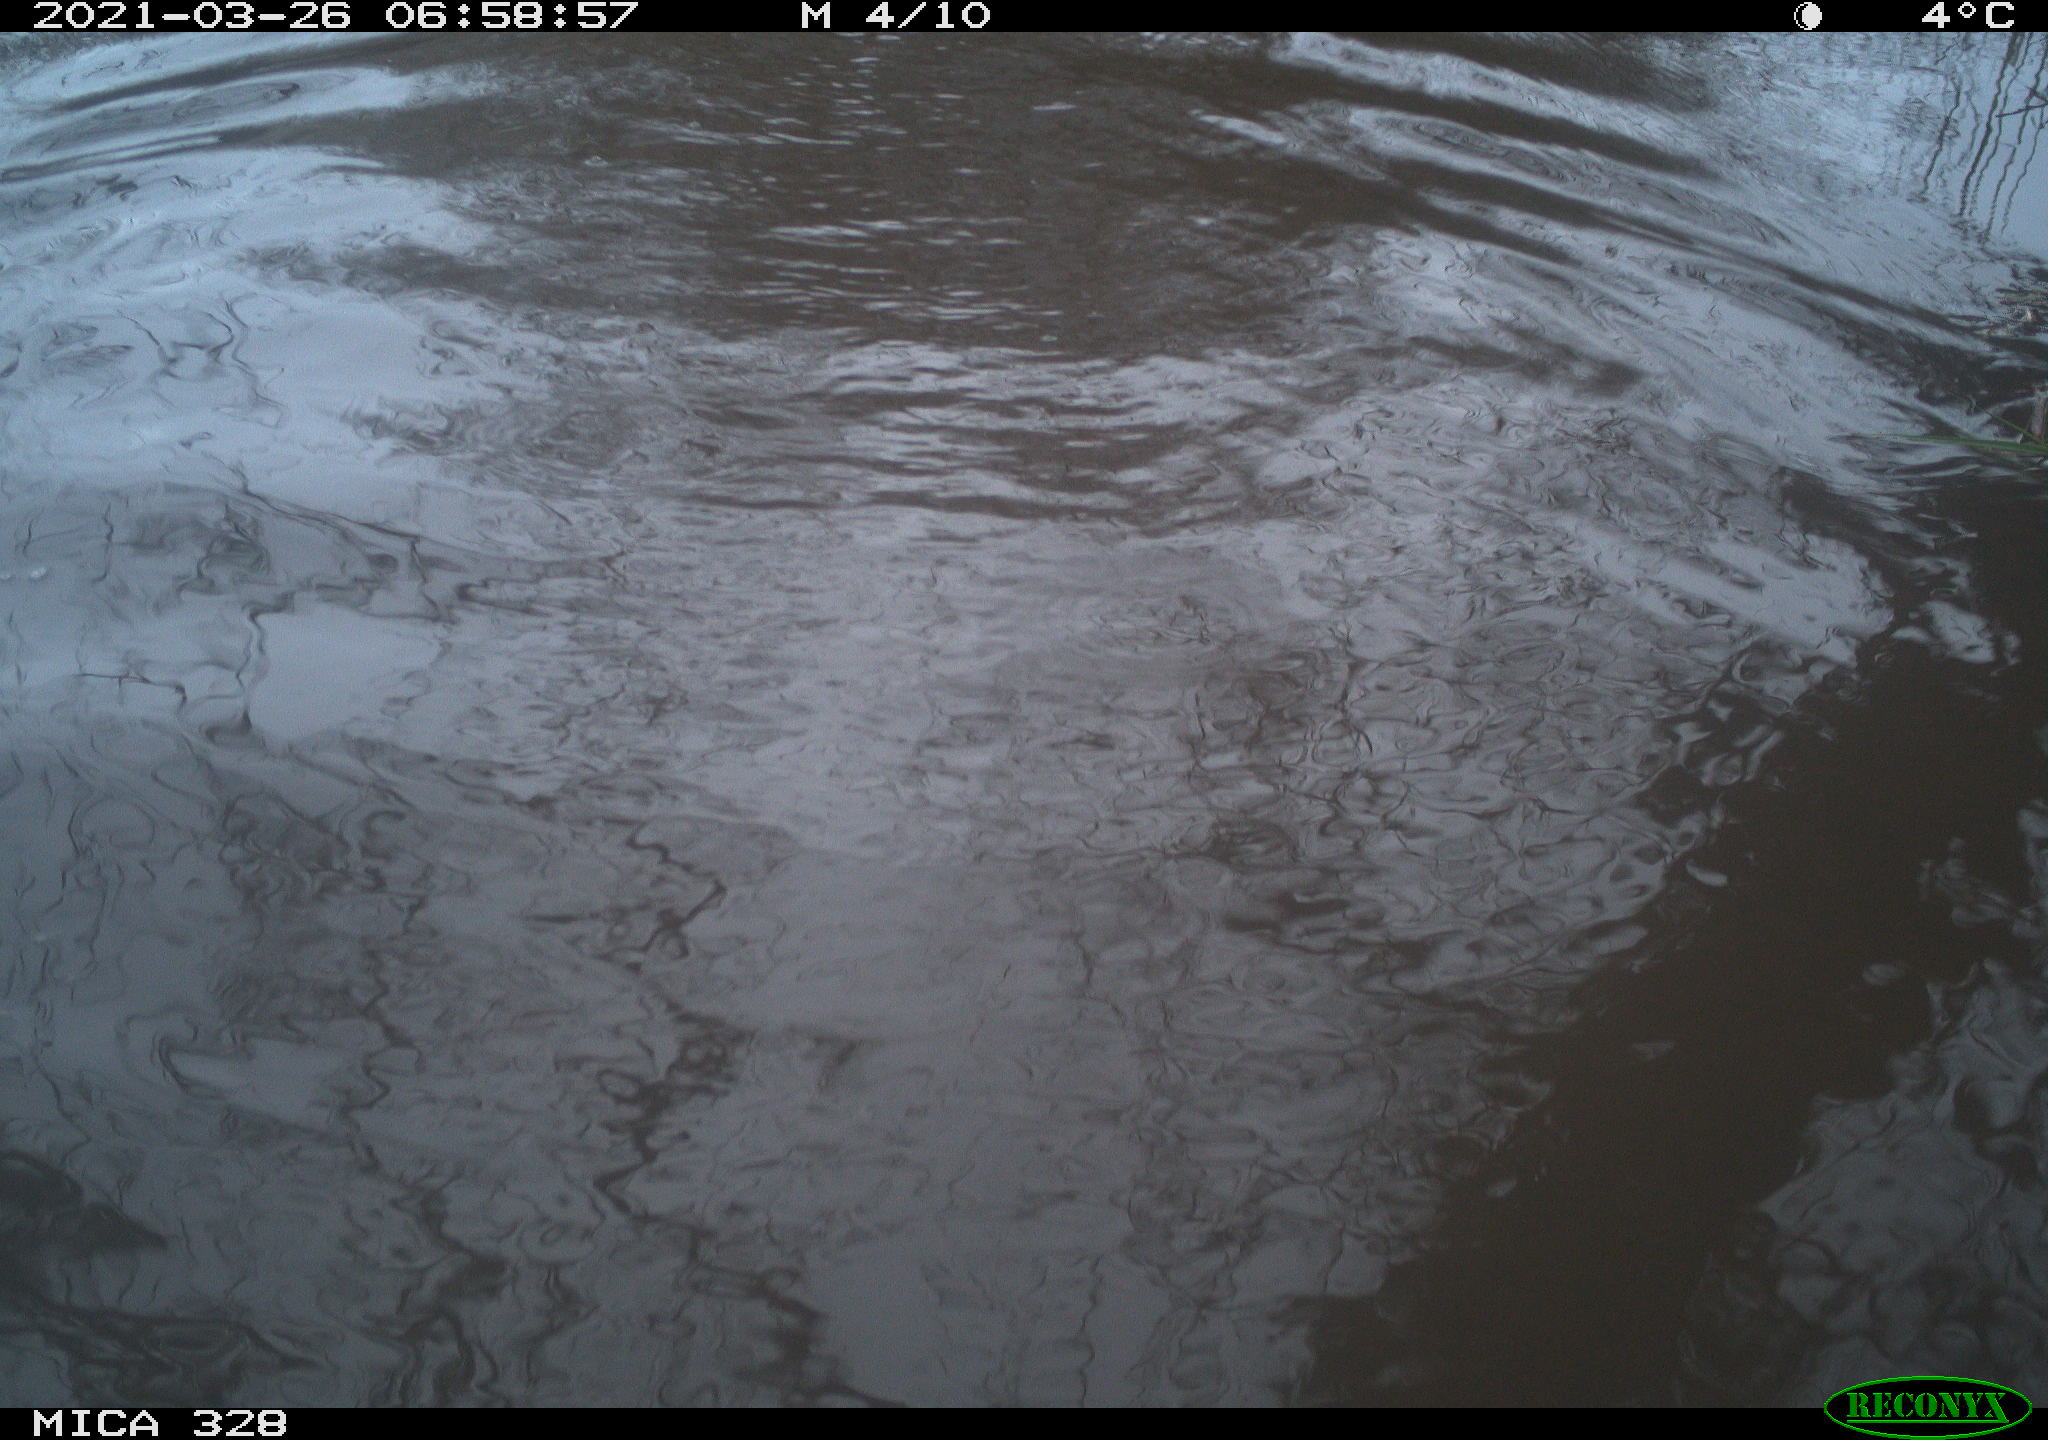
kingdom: Animalia
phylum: Chordata
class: Mammalia
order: Rodentia
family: Cricetidae
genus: Ondatra
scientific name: Ondatra zibethicus
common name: Muskrat
